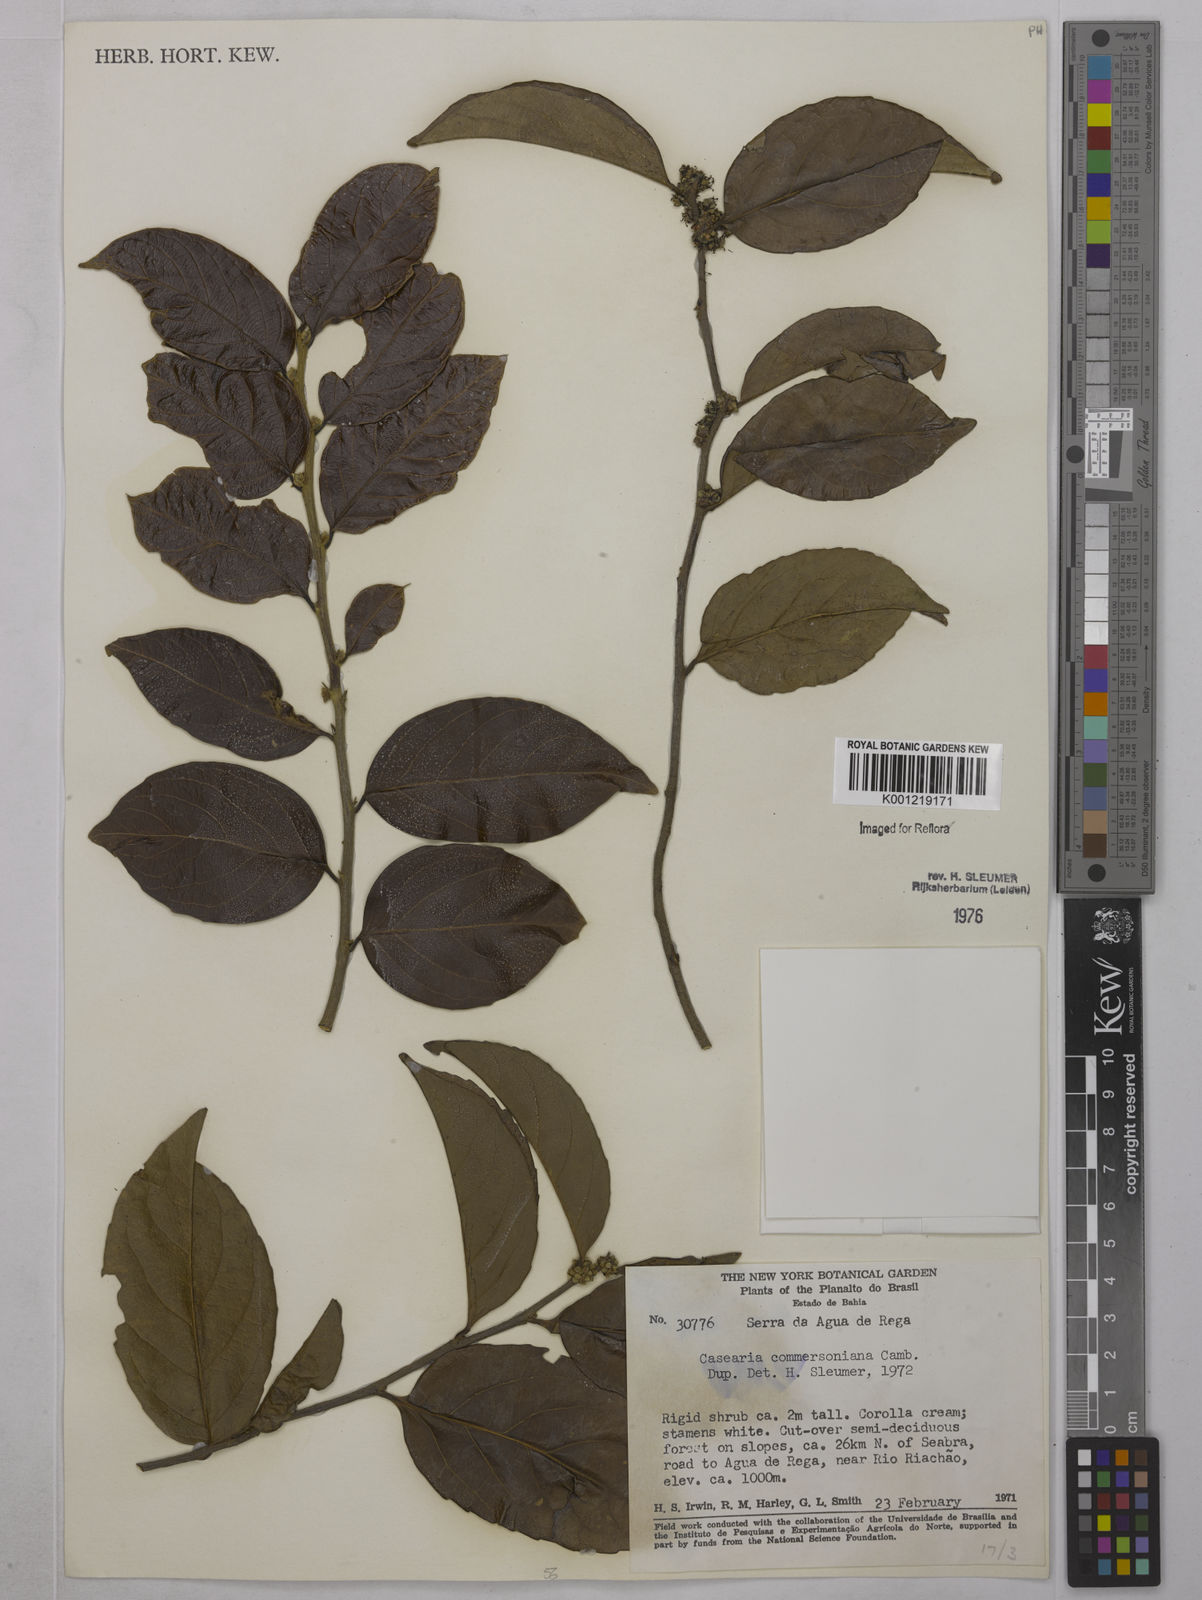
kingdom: Plantae
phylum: Tracheophyta
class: Magnoliopsida
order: Malpighiales
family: Salicaceae
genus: Piparea
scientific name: Piparea dentata
